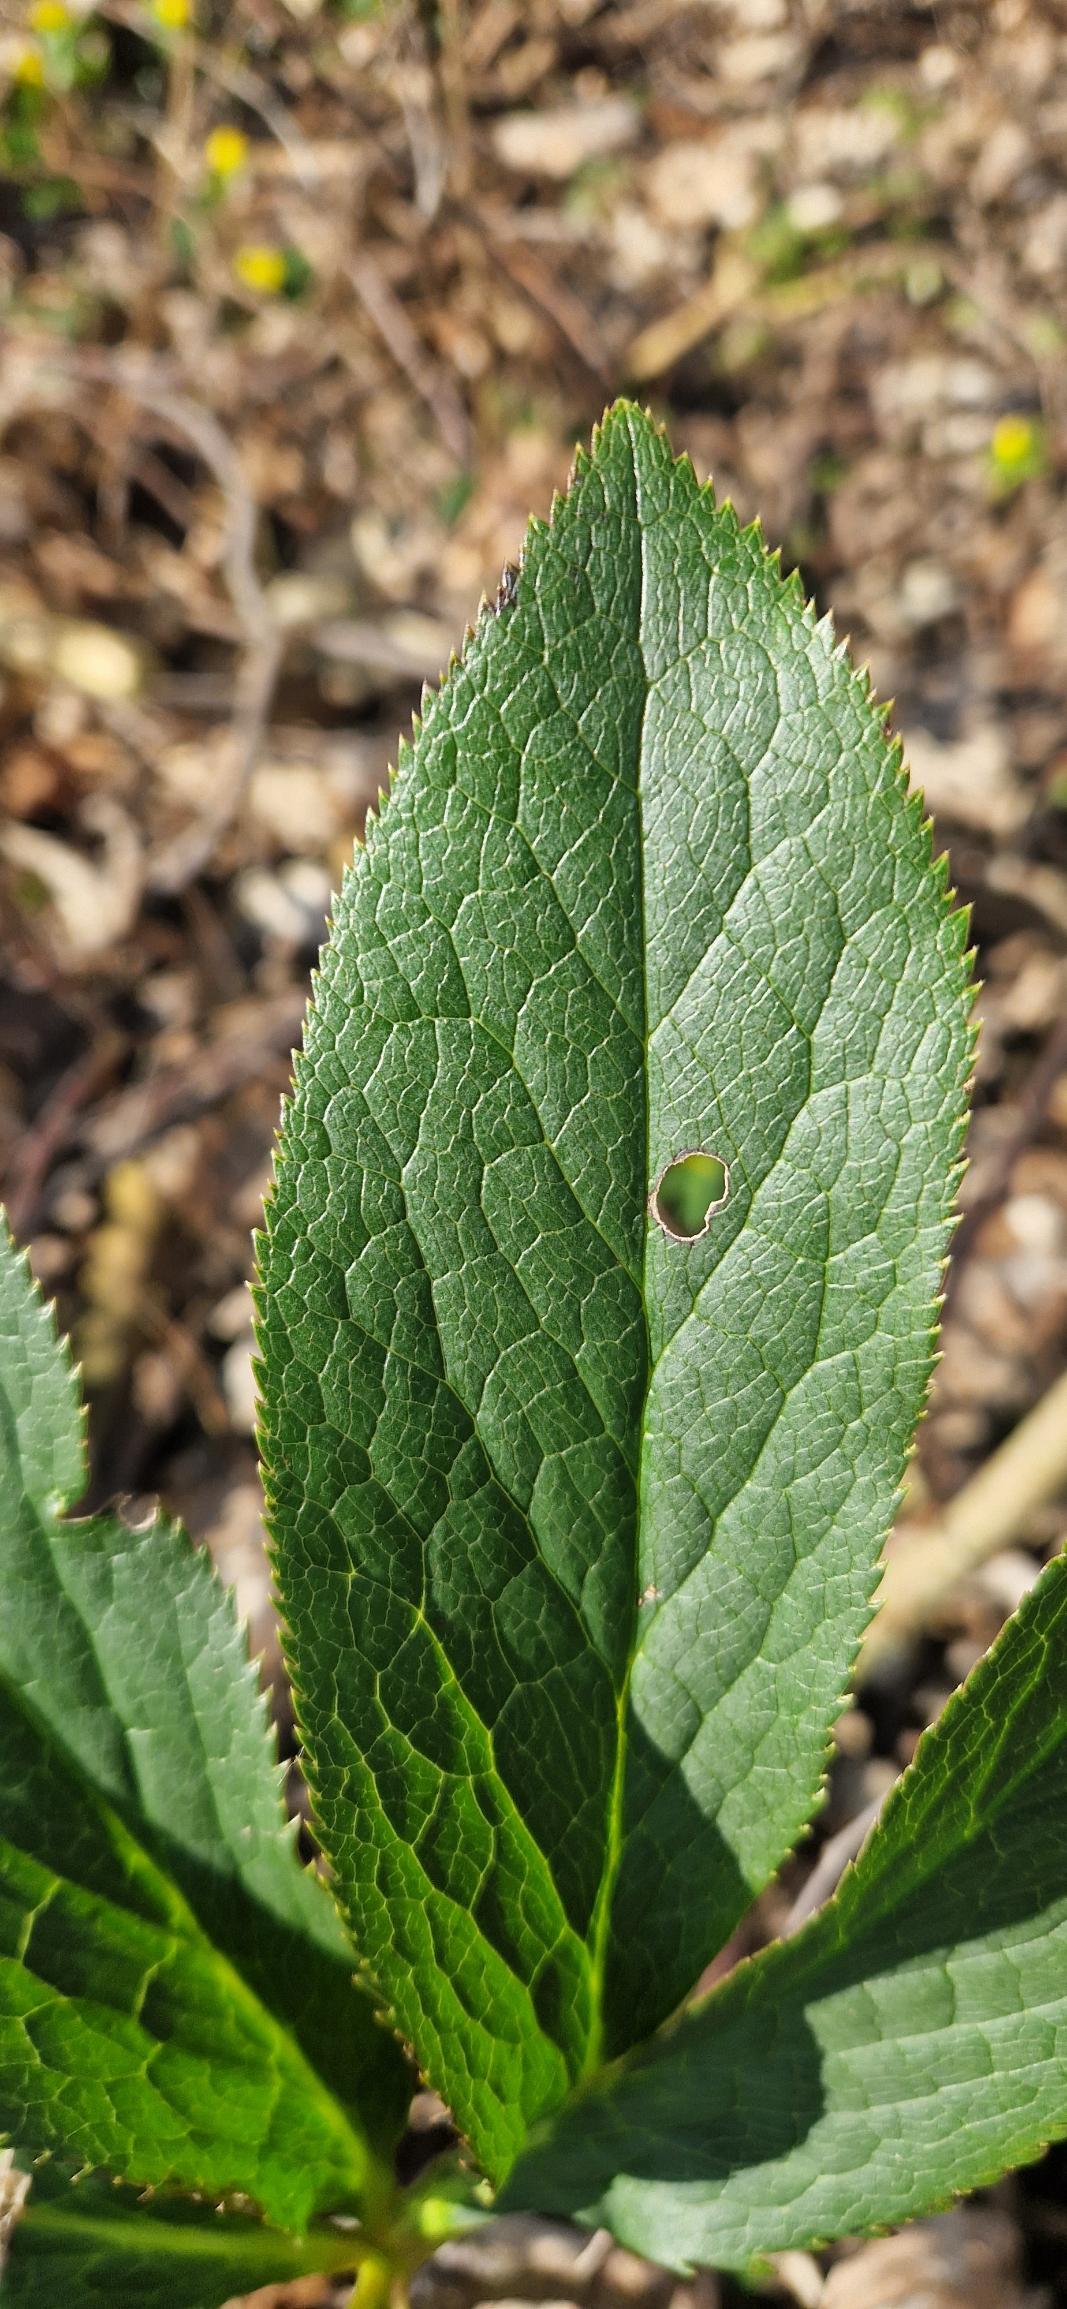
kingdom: Plantae
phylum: Tracheophyta
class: Magnoliopsida
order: Ranunculales
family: Ranunculaceae
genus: Helleborus
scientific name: Helleborus orientalis
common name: Storblomstret julerose
